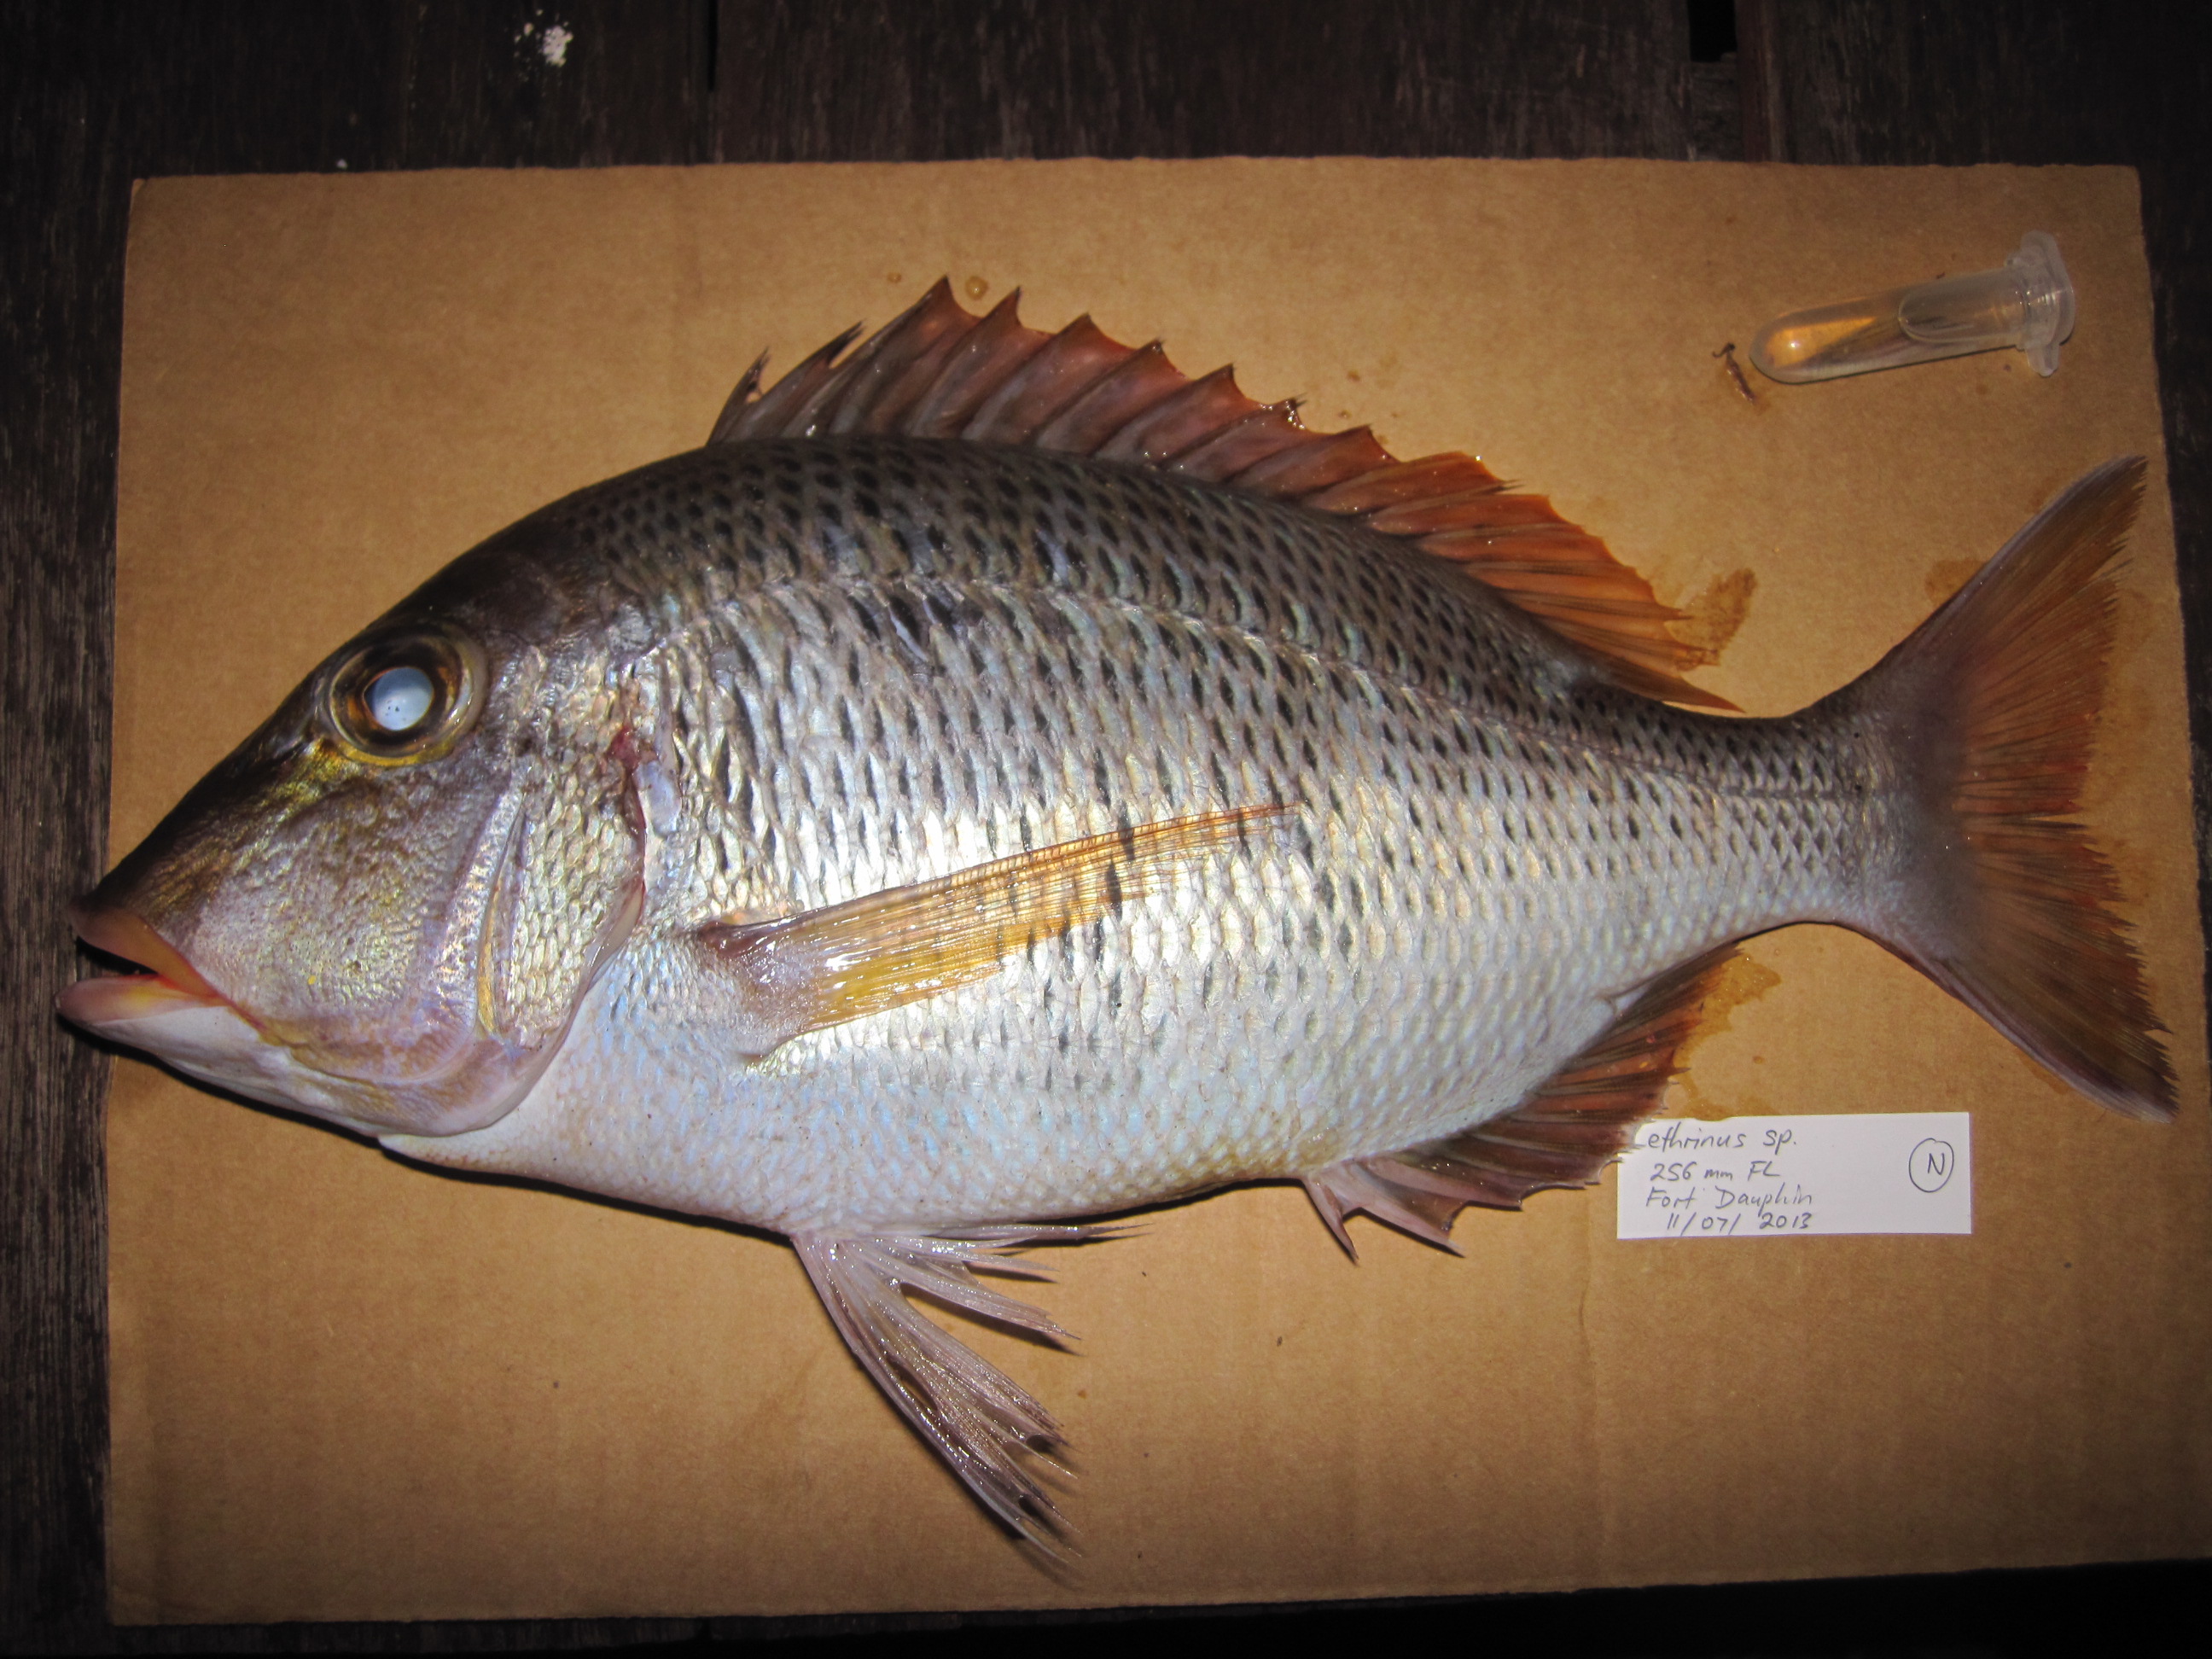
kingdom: Animalia
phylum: Chordata
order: Perciformes
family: Lethrinidae
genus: Lethrinus
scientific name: Lethrinus mahsena
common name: Sky emperor
